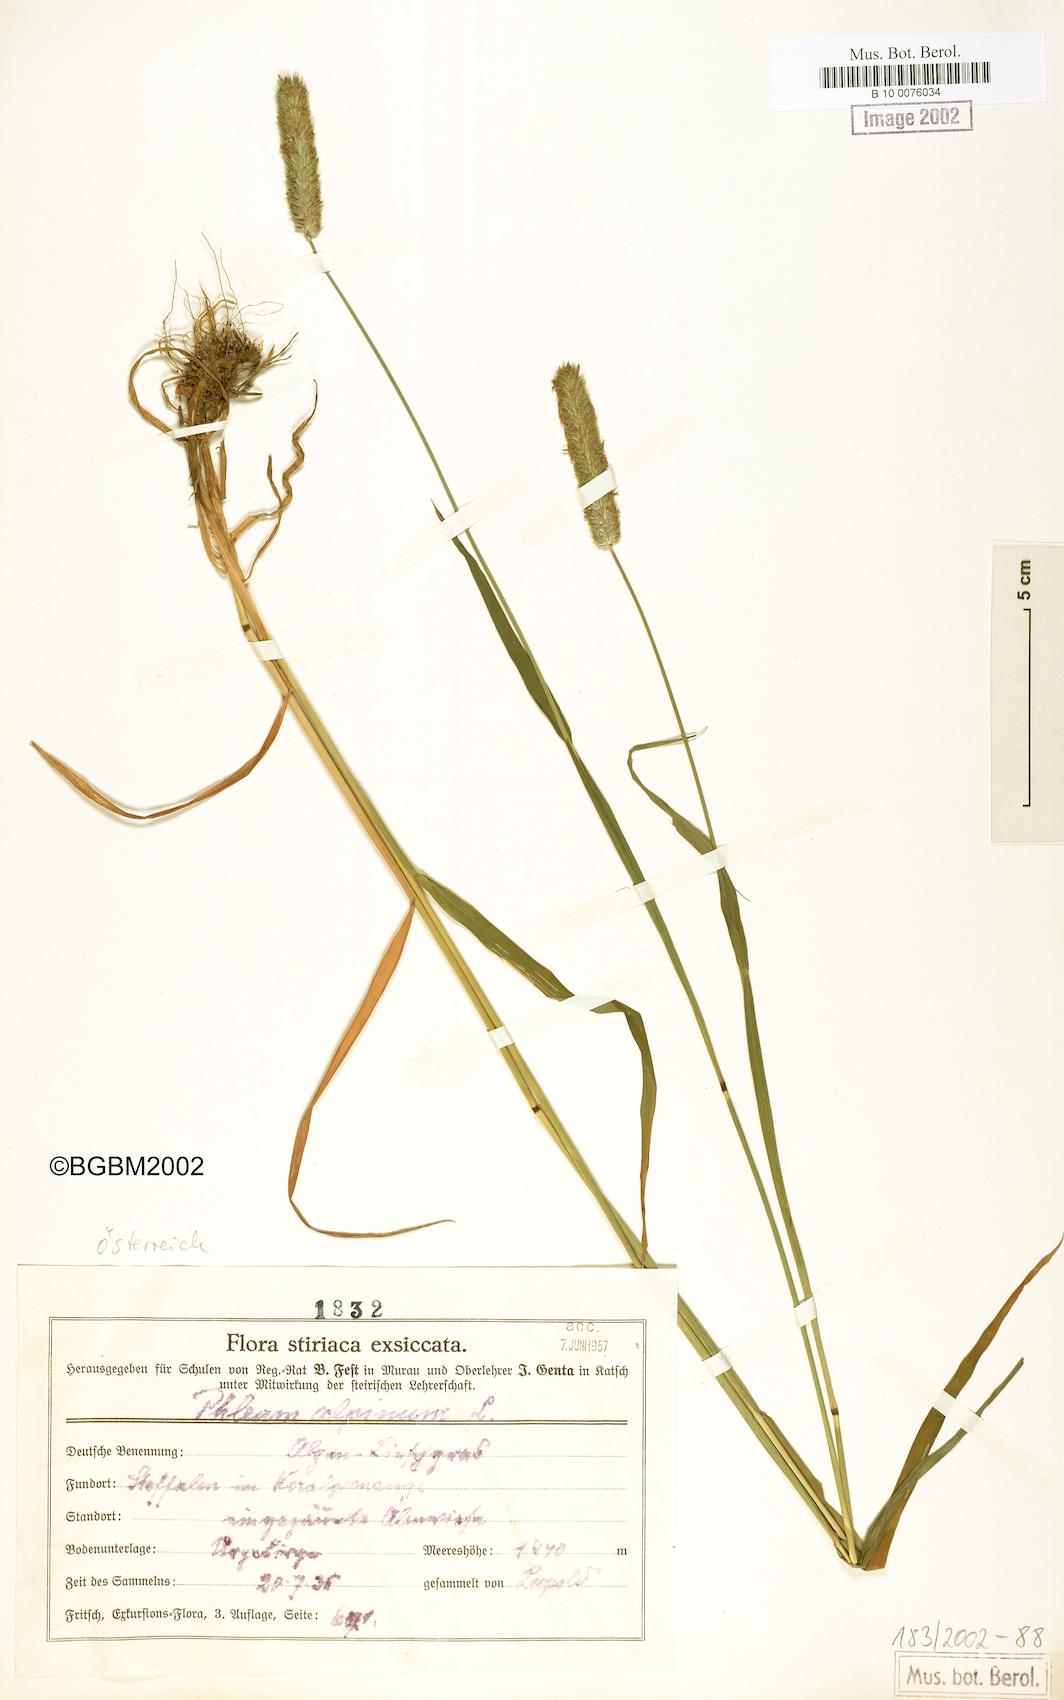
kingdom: Plantae
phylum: Tracheophyta
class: Liliopsida
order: Poales
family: Poaceae
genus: Phleum
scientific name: Phleum alpinum
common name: Alpine cat's-tail
